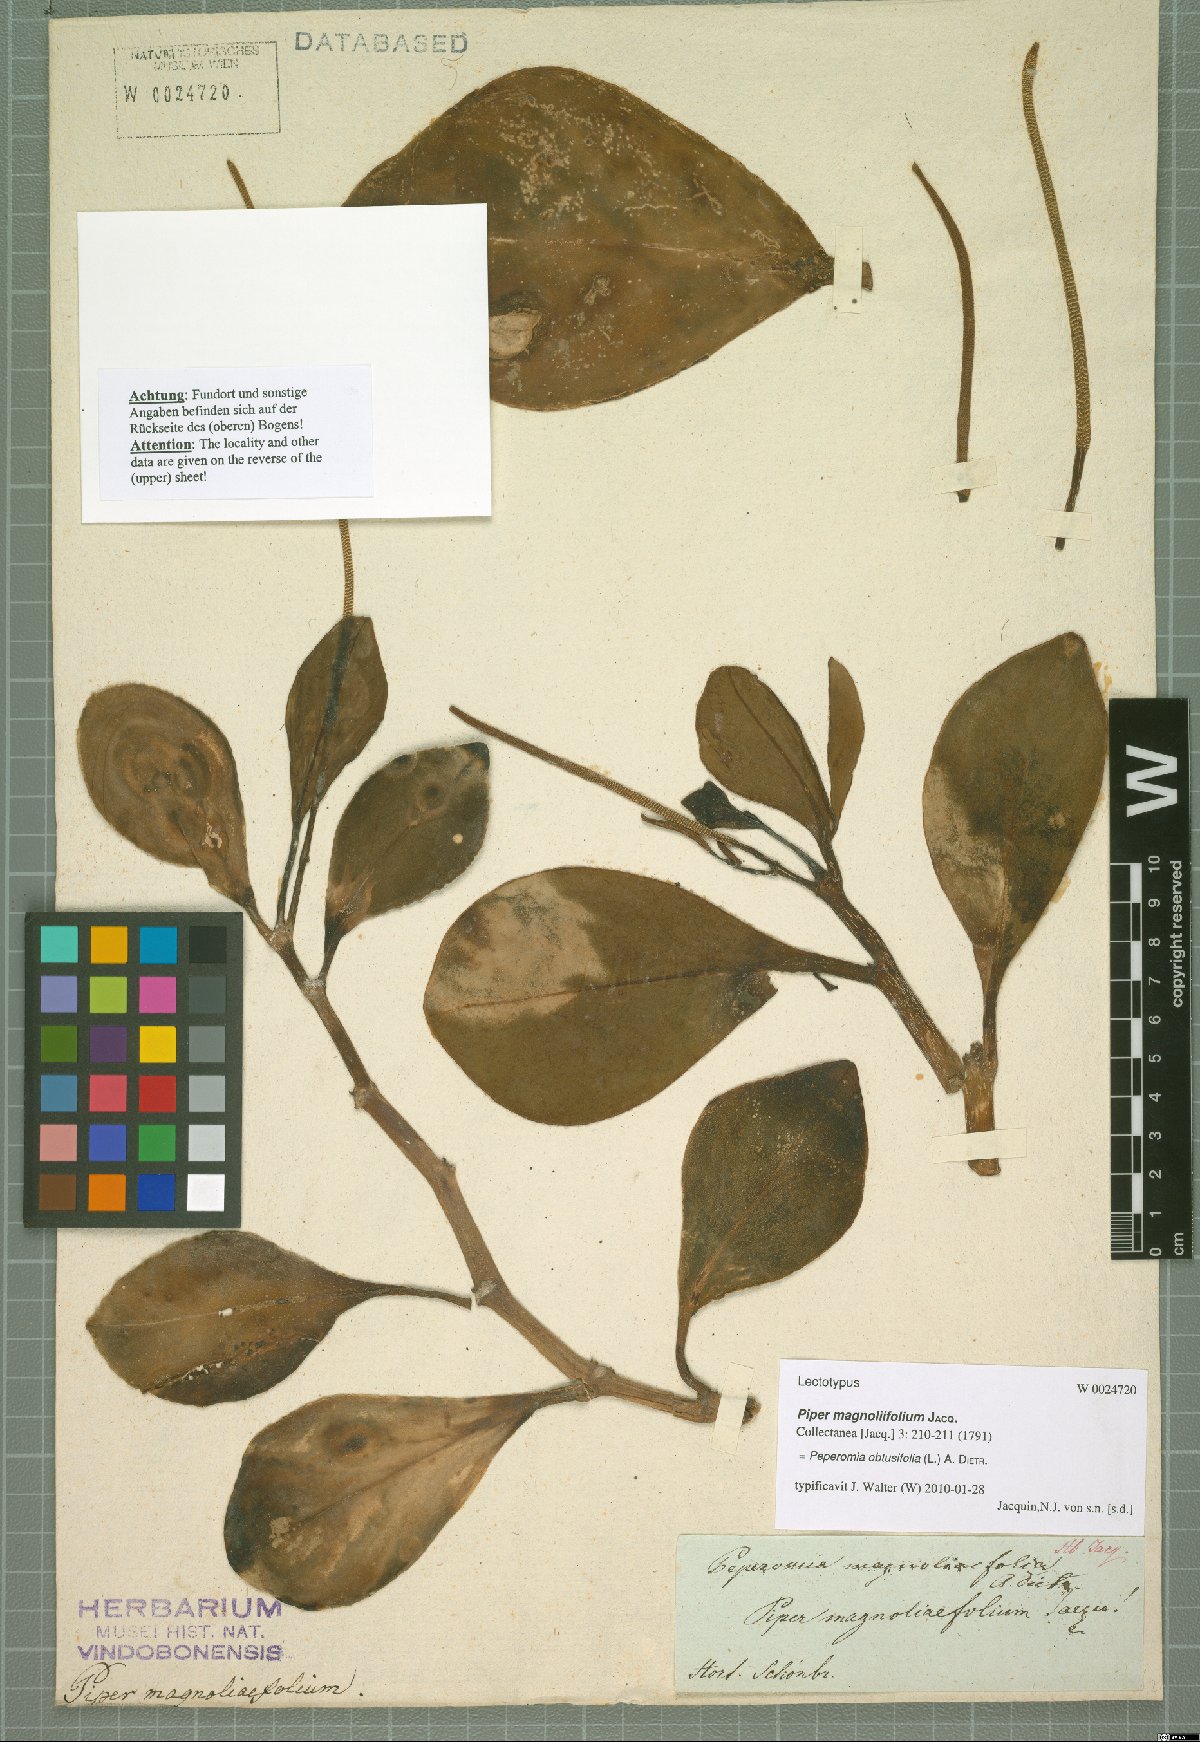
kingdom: Plantae
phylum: Tracheophyta
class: Magnoliopsida
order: Piperales
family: Piperaceae
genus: Peperomia
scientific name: Peperomia obtusifolia
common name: Baby rubberplant
